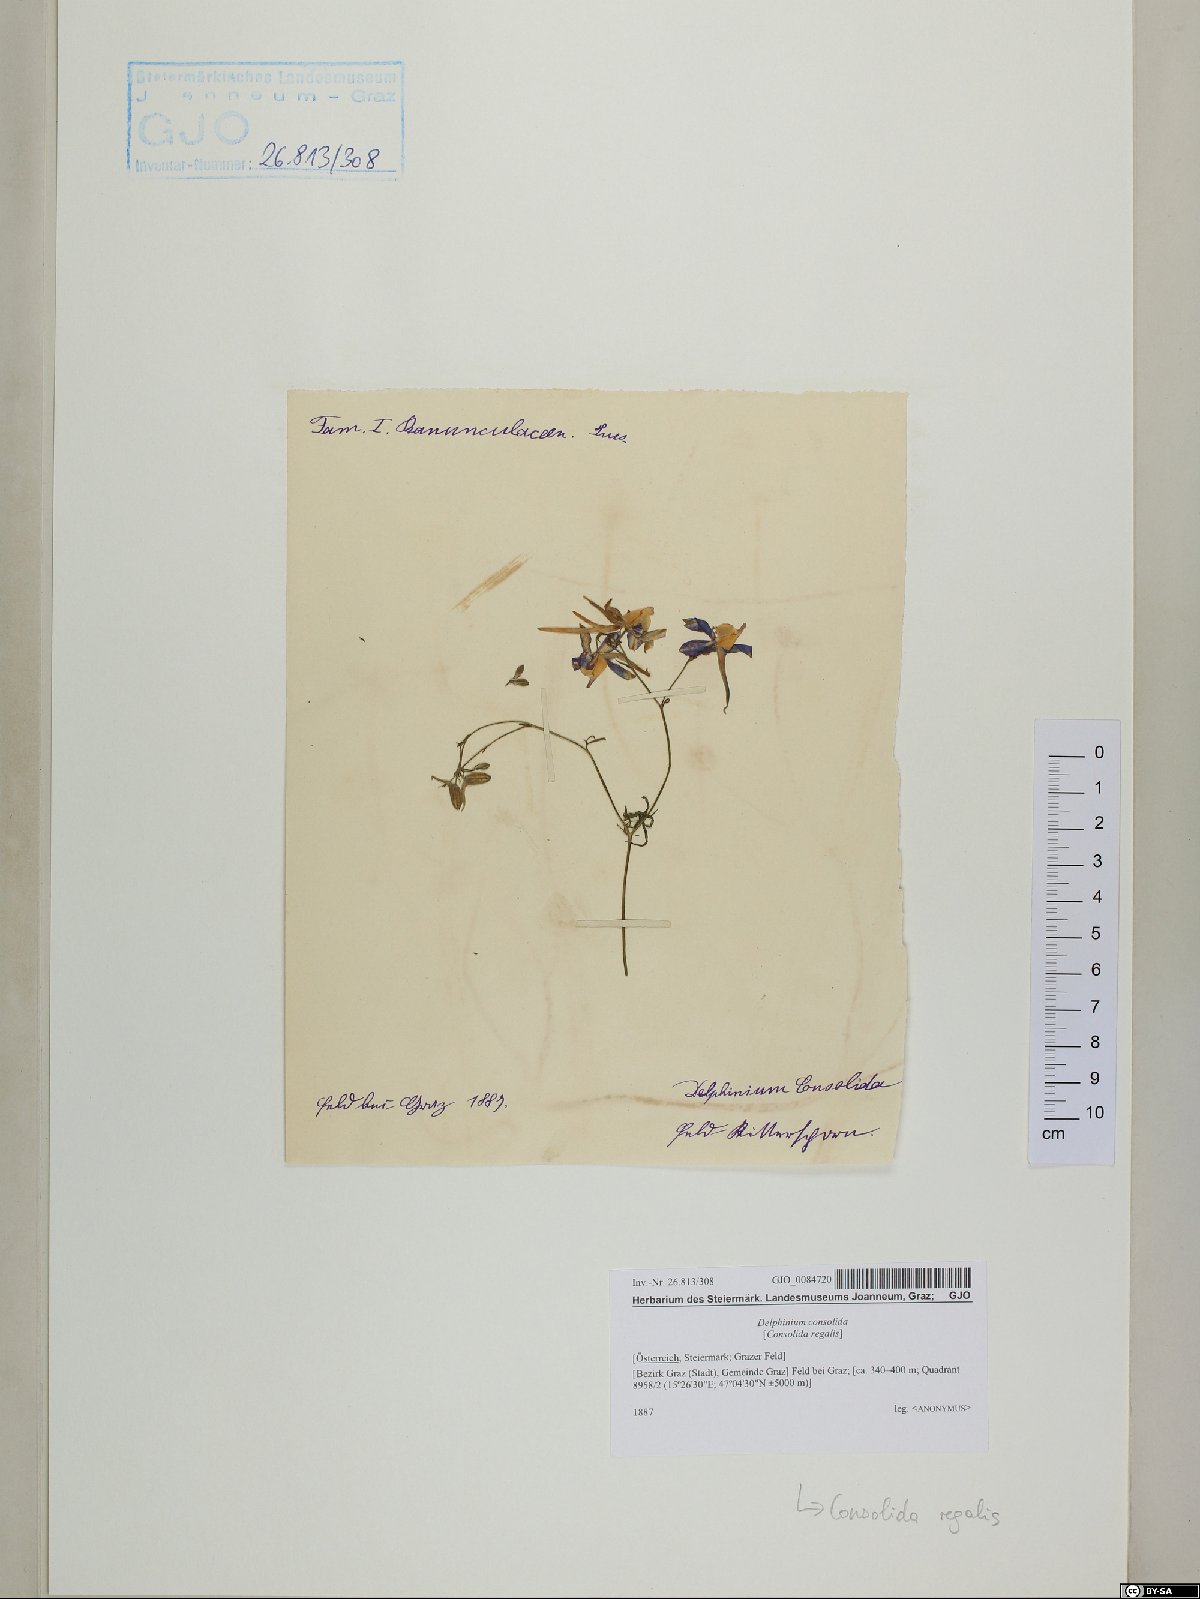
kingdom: Plantae
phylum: Tracheophyta
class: Magnoliopsida
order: Ranunculales
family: Ranunculaceae
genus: Delphinium
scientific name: Delphinium consolida
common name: Branching larkspur
